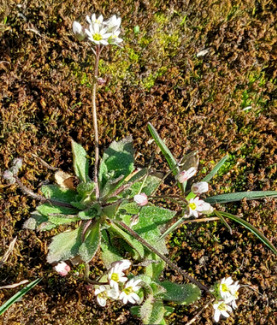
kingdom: Plantae
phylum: Tracheophyta
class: Magnoliopsida
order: Brassicales
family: Brassicaceae
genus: Draba
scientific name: Draba verna
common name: Vår-gæslingeblomst
